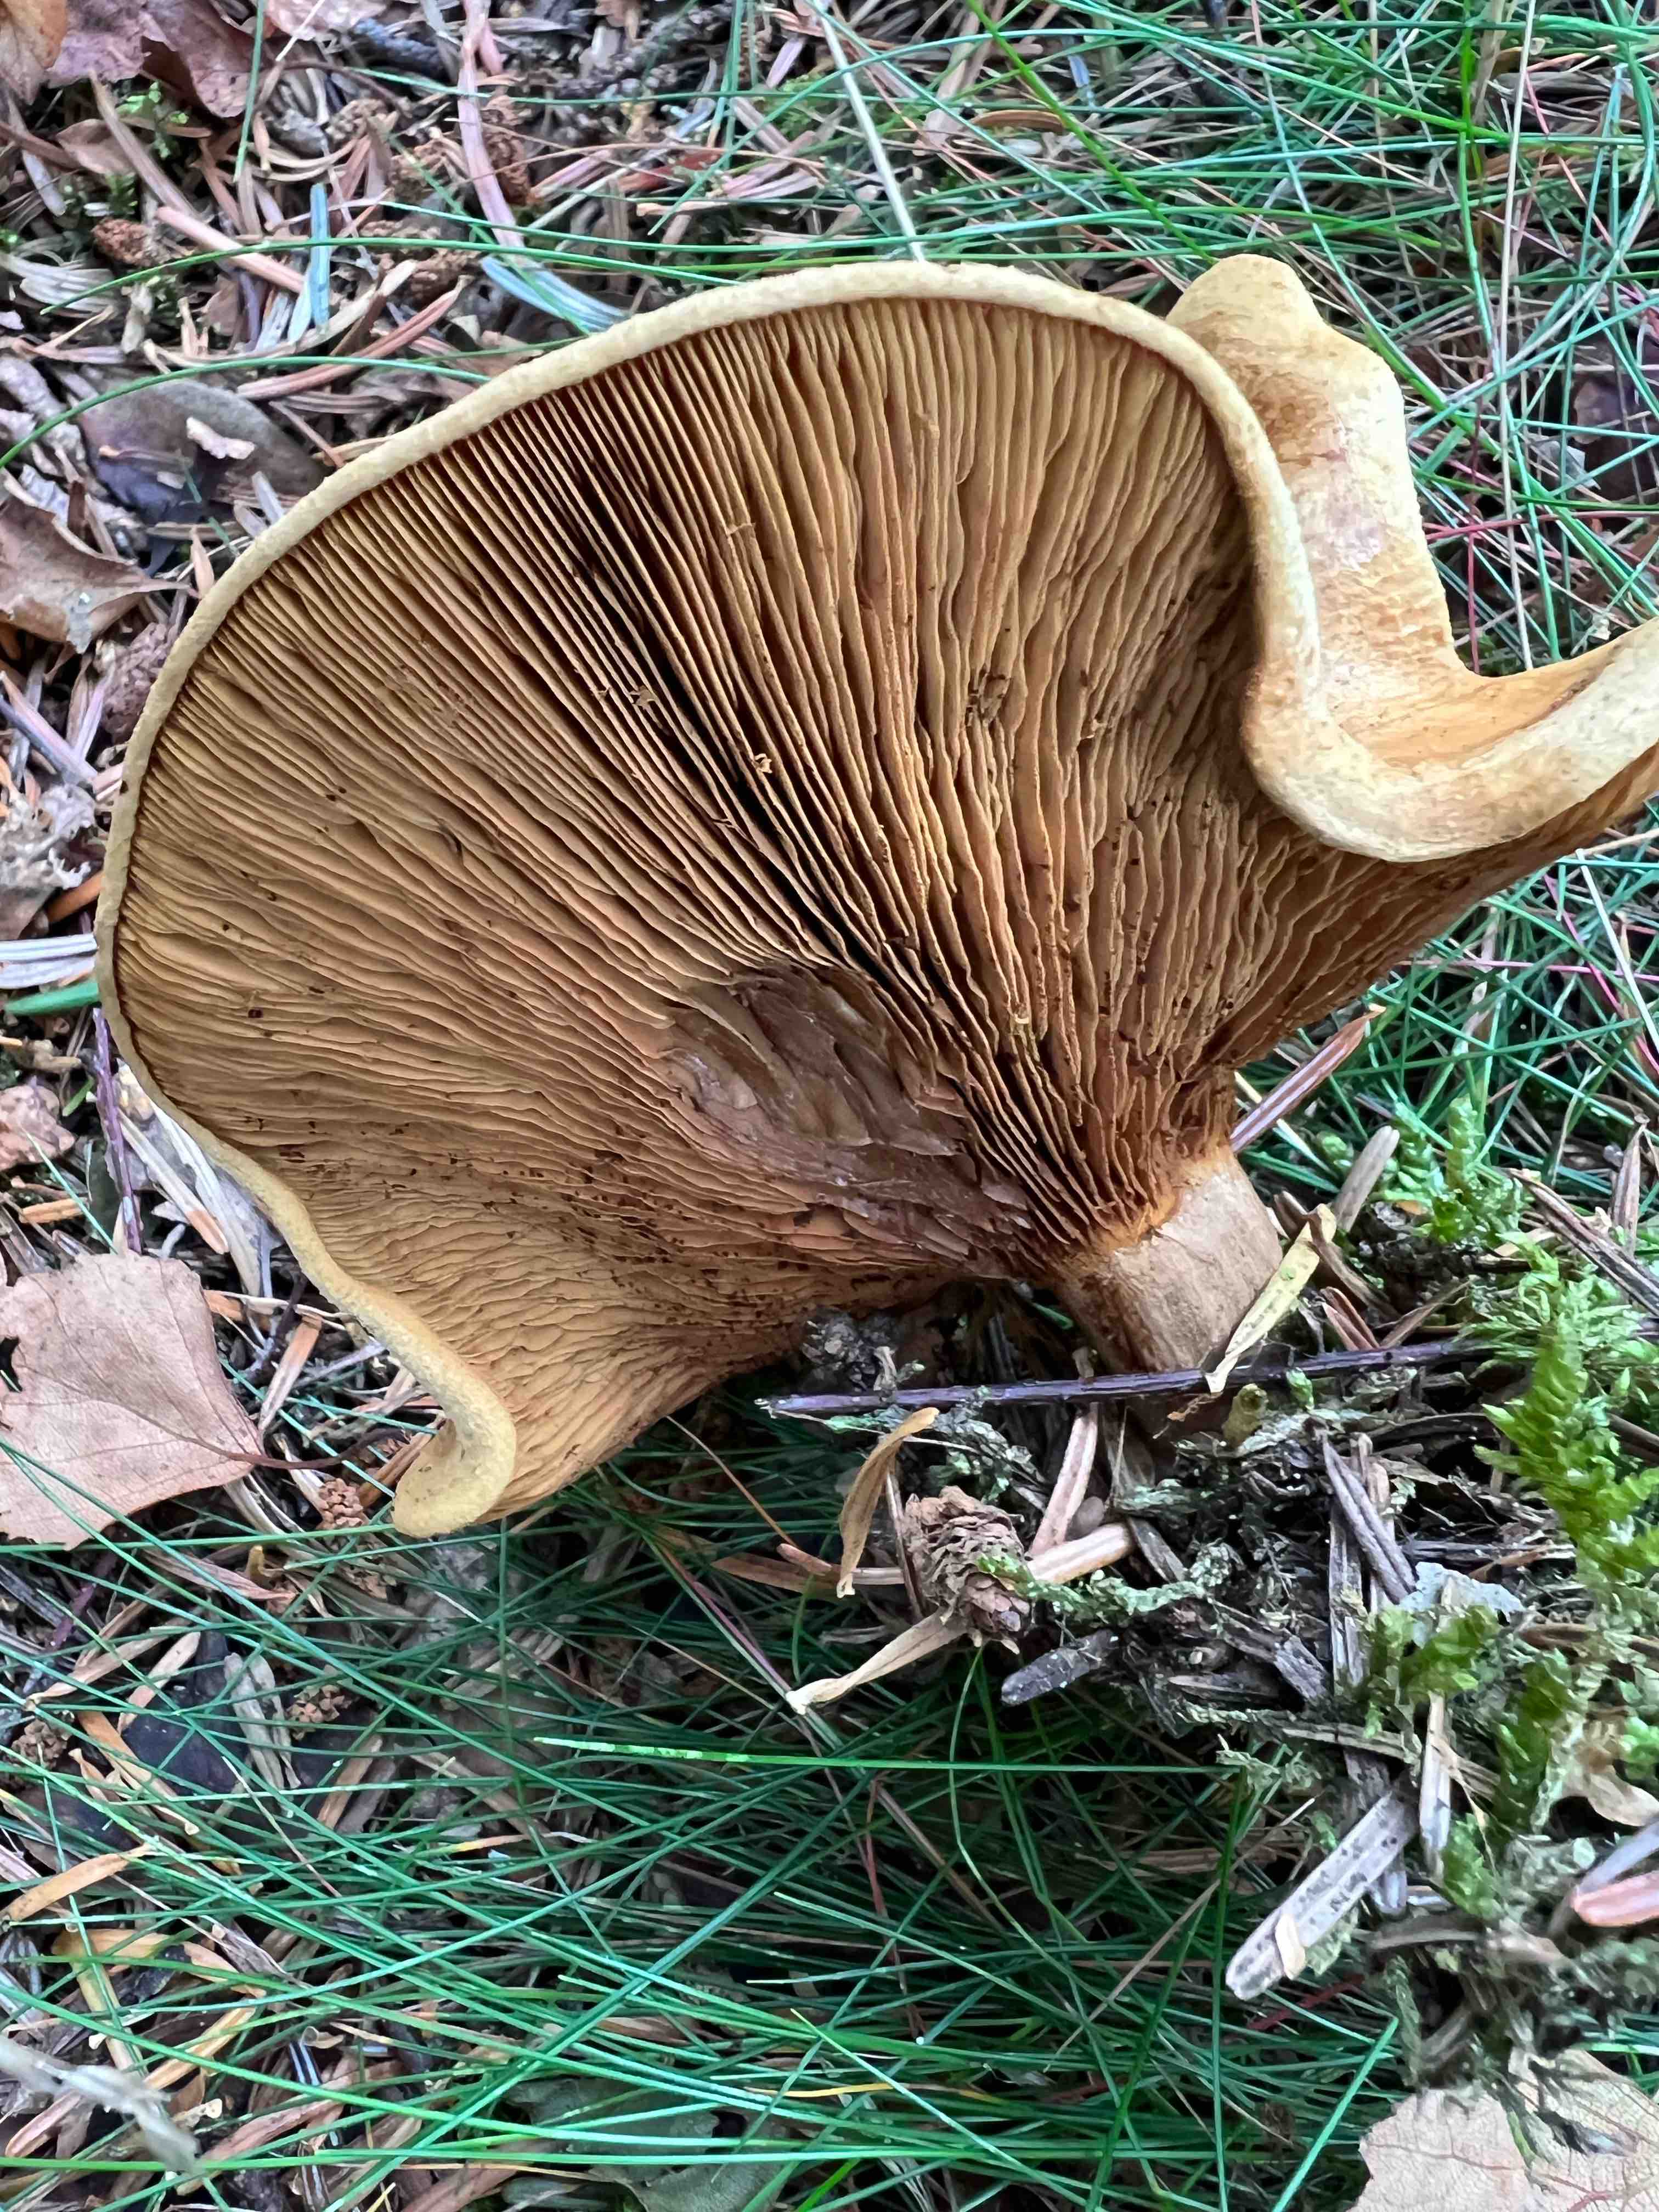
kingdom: Fungi
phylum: Basidiomycota
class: Agaricomycetes
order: Boletales
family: Paxillaceae
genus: Paxillus
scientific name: Paxillus involutus
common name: almindelig netbladhat
